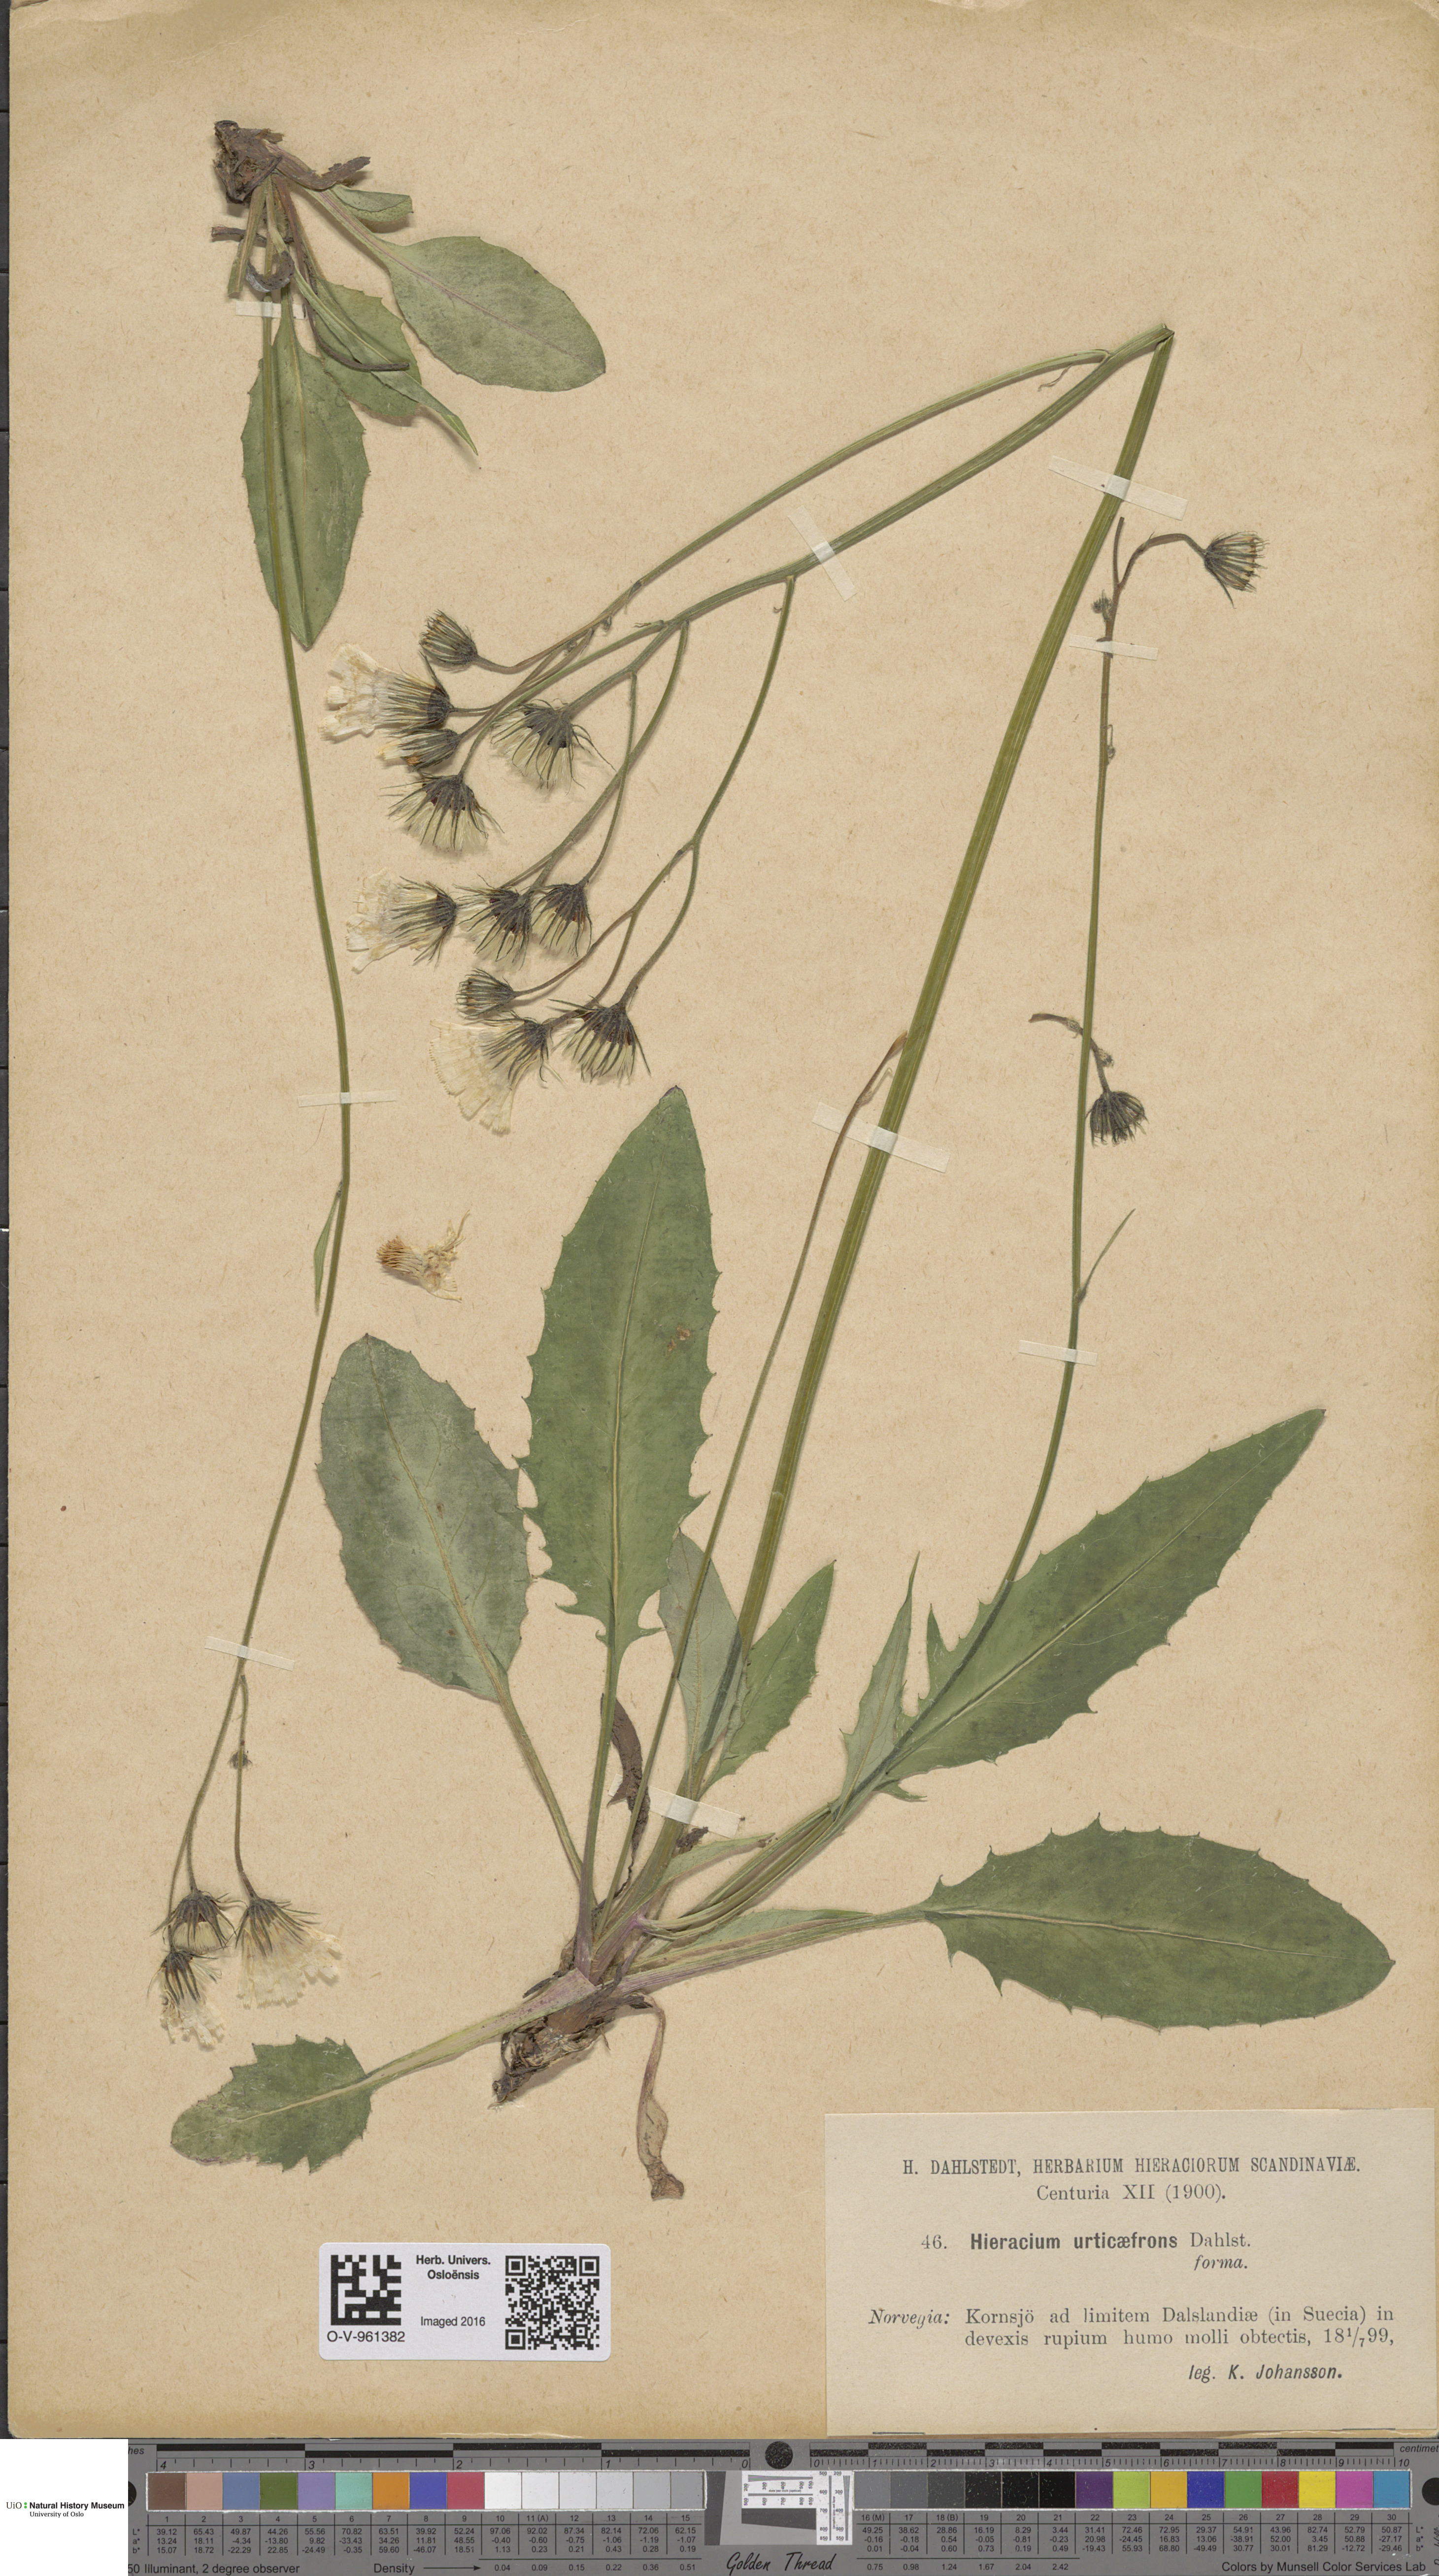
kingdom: Plantae
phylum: Tracheophyta
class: Magnoliopsida
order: Asterales
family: Asteraceae
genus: Hieracium
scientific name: Hieracium bifidum
